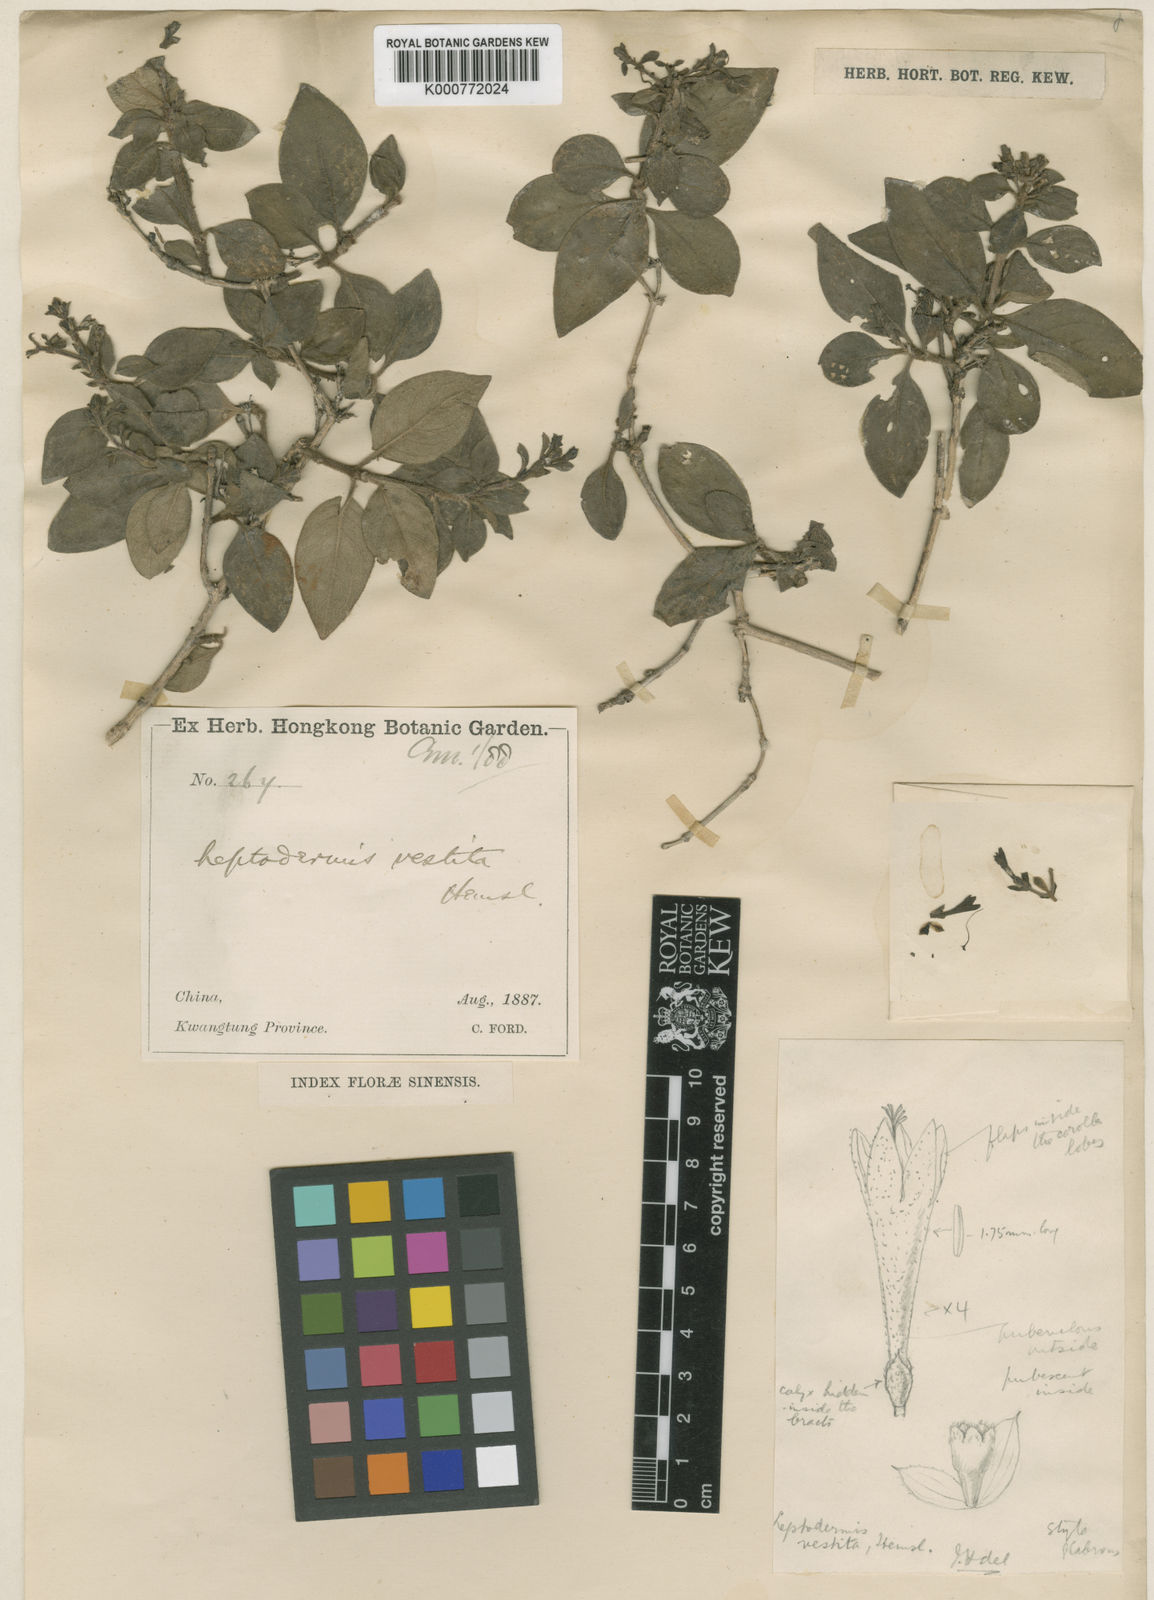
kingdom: Plantae
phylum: Tracheophyta
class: Magnoliopsida
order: Gentianales
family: Rubiaceae
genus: Leptodermis
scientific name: Leptodermis vestita
